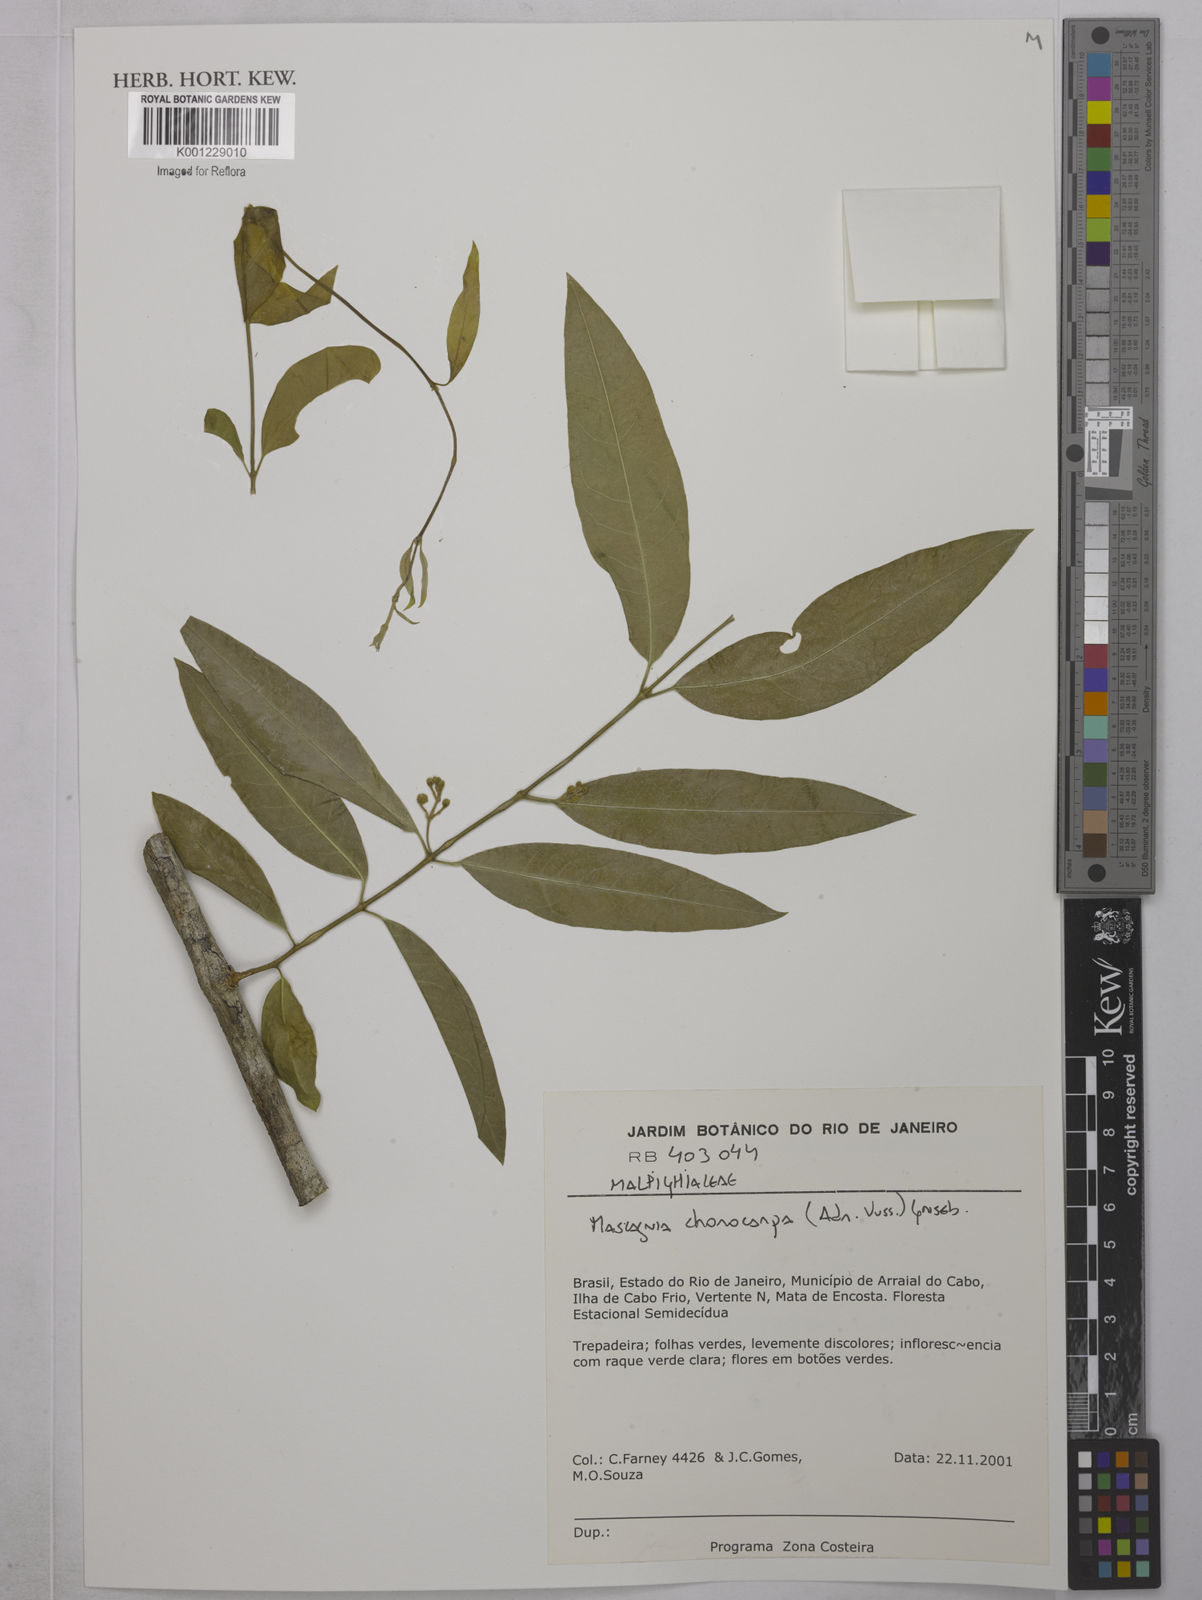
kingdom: Plantae
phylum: Tracheophyta
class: Magnoliopsida
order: Malpighiales
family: Malpighiaceae
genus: Carolus
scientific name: Carolus chlorocarpus
